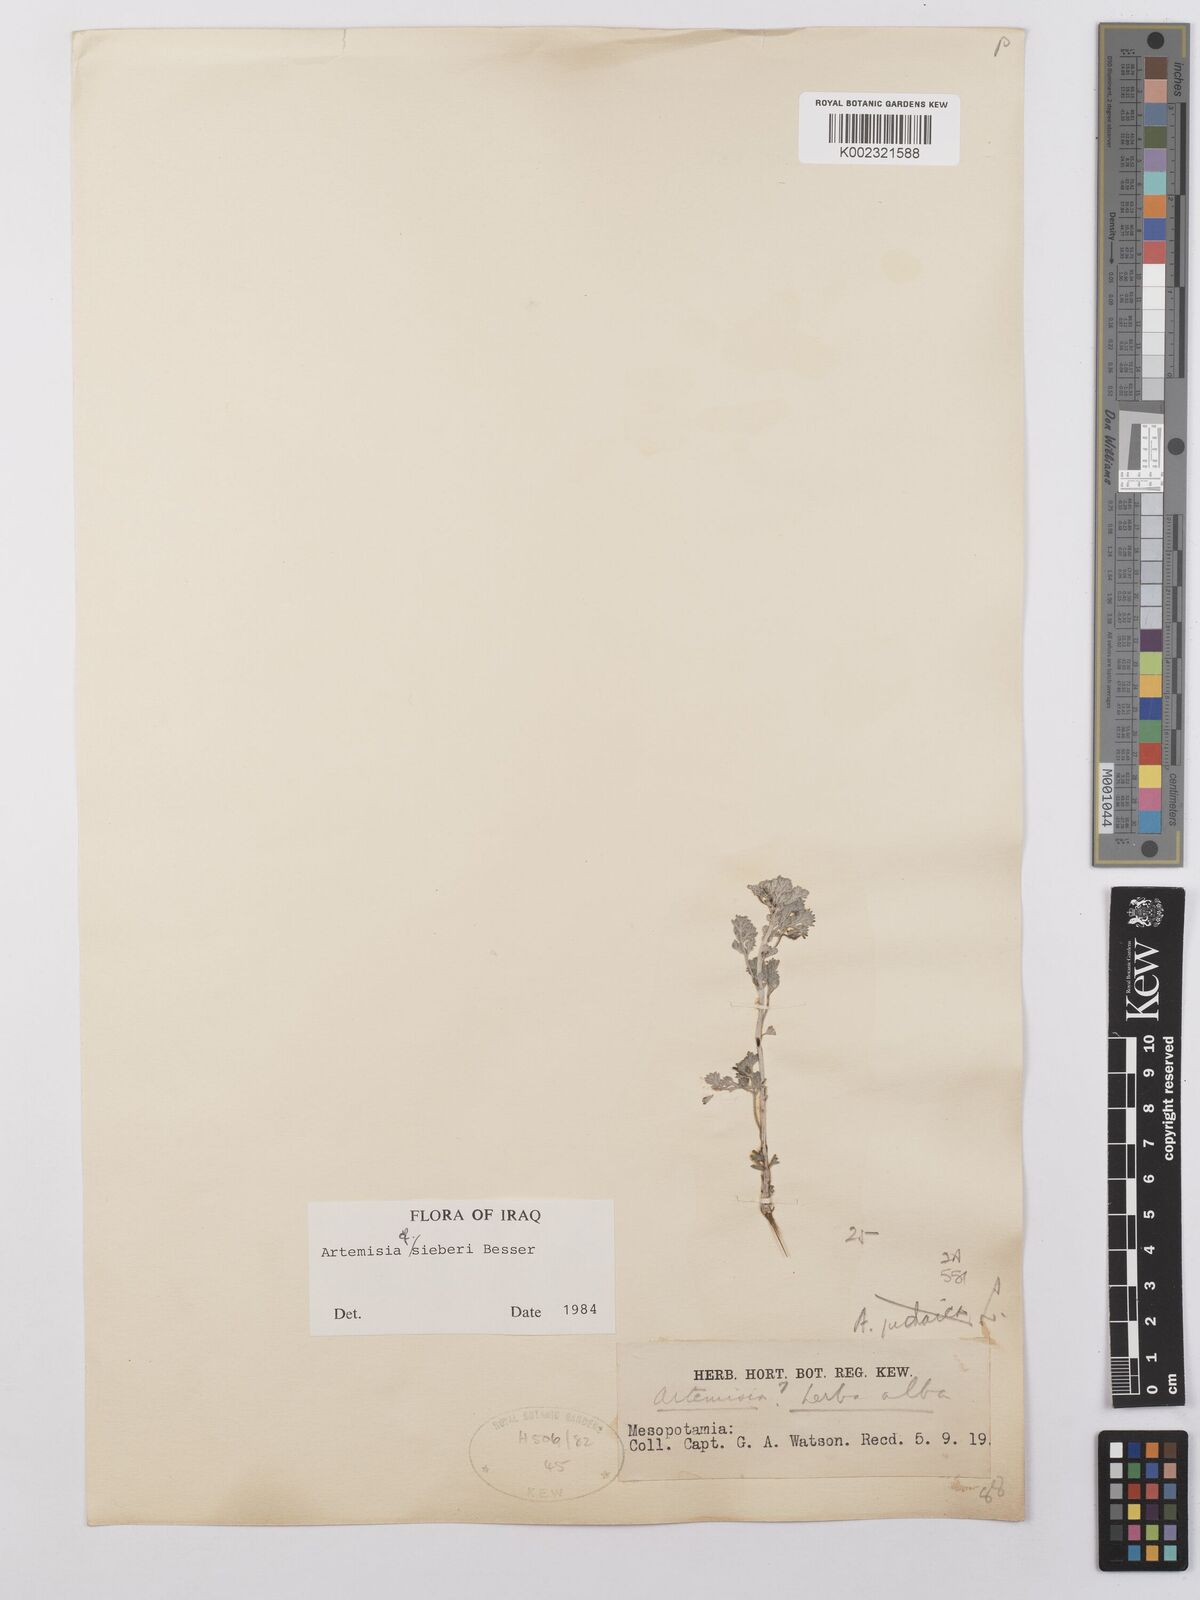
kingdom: Plantae
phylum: Tracheophyta
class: Magnoliopsida
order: Asterales
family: Asteraceae
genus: Artemisia
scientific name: Artemisia sieberi
